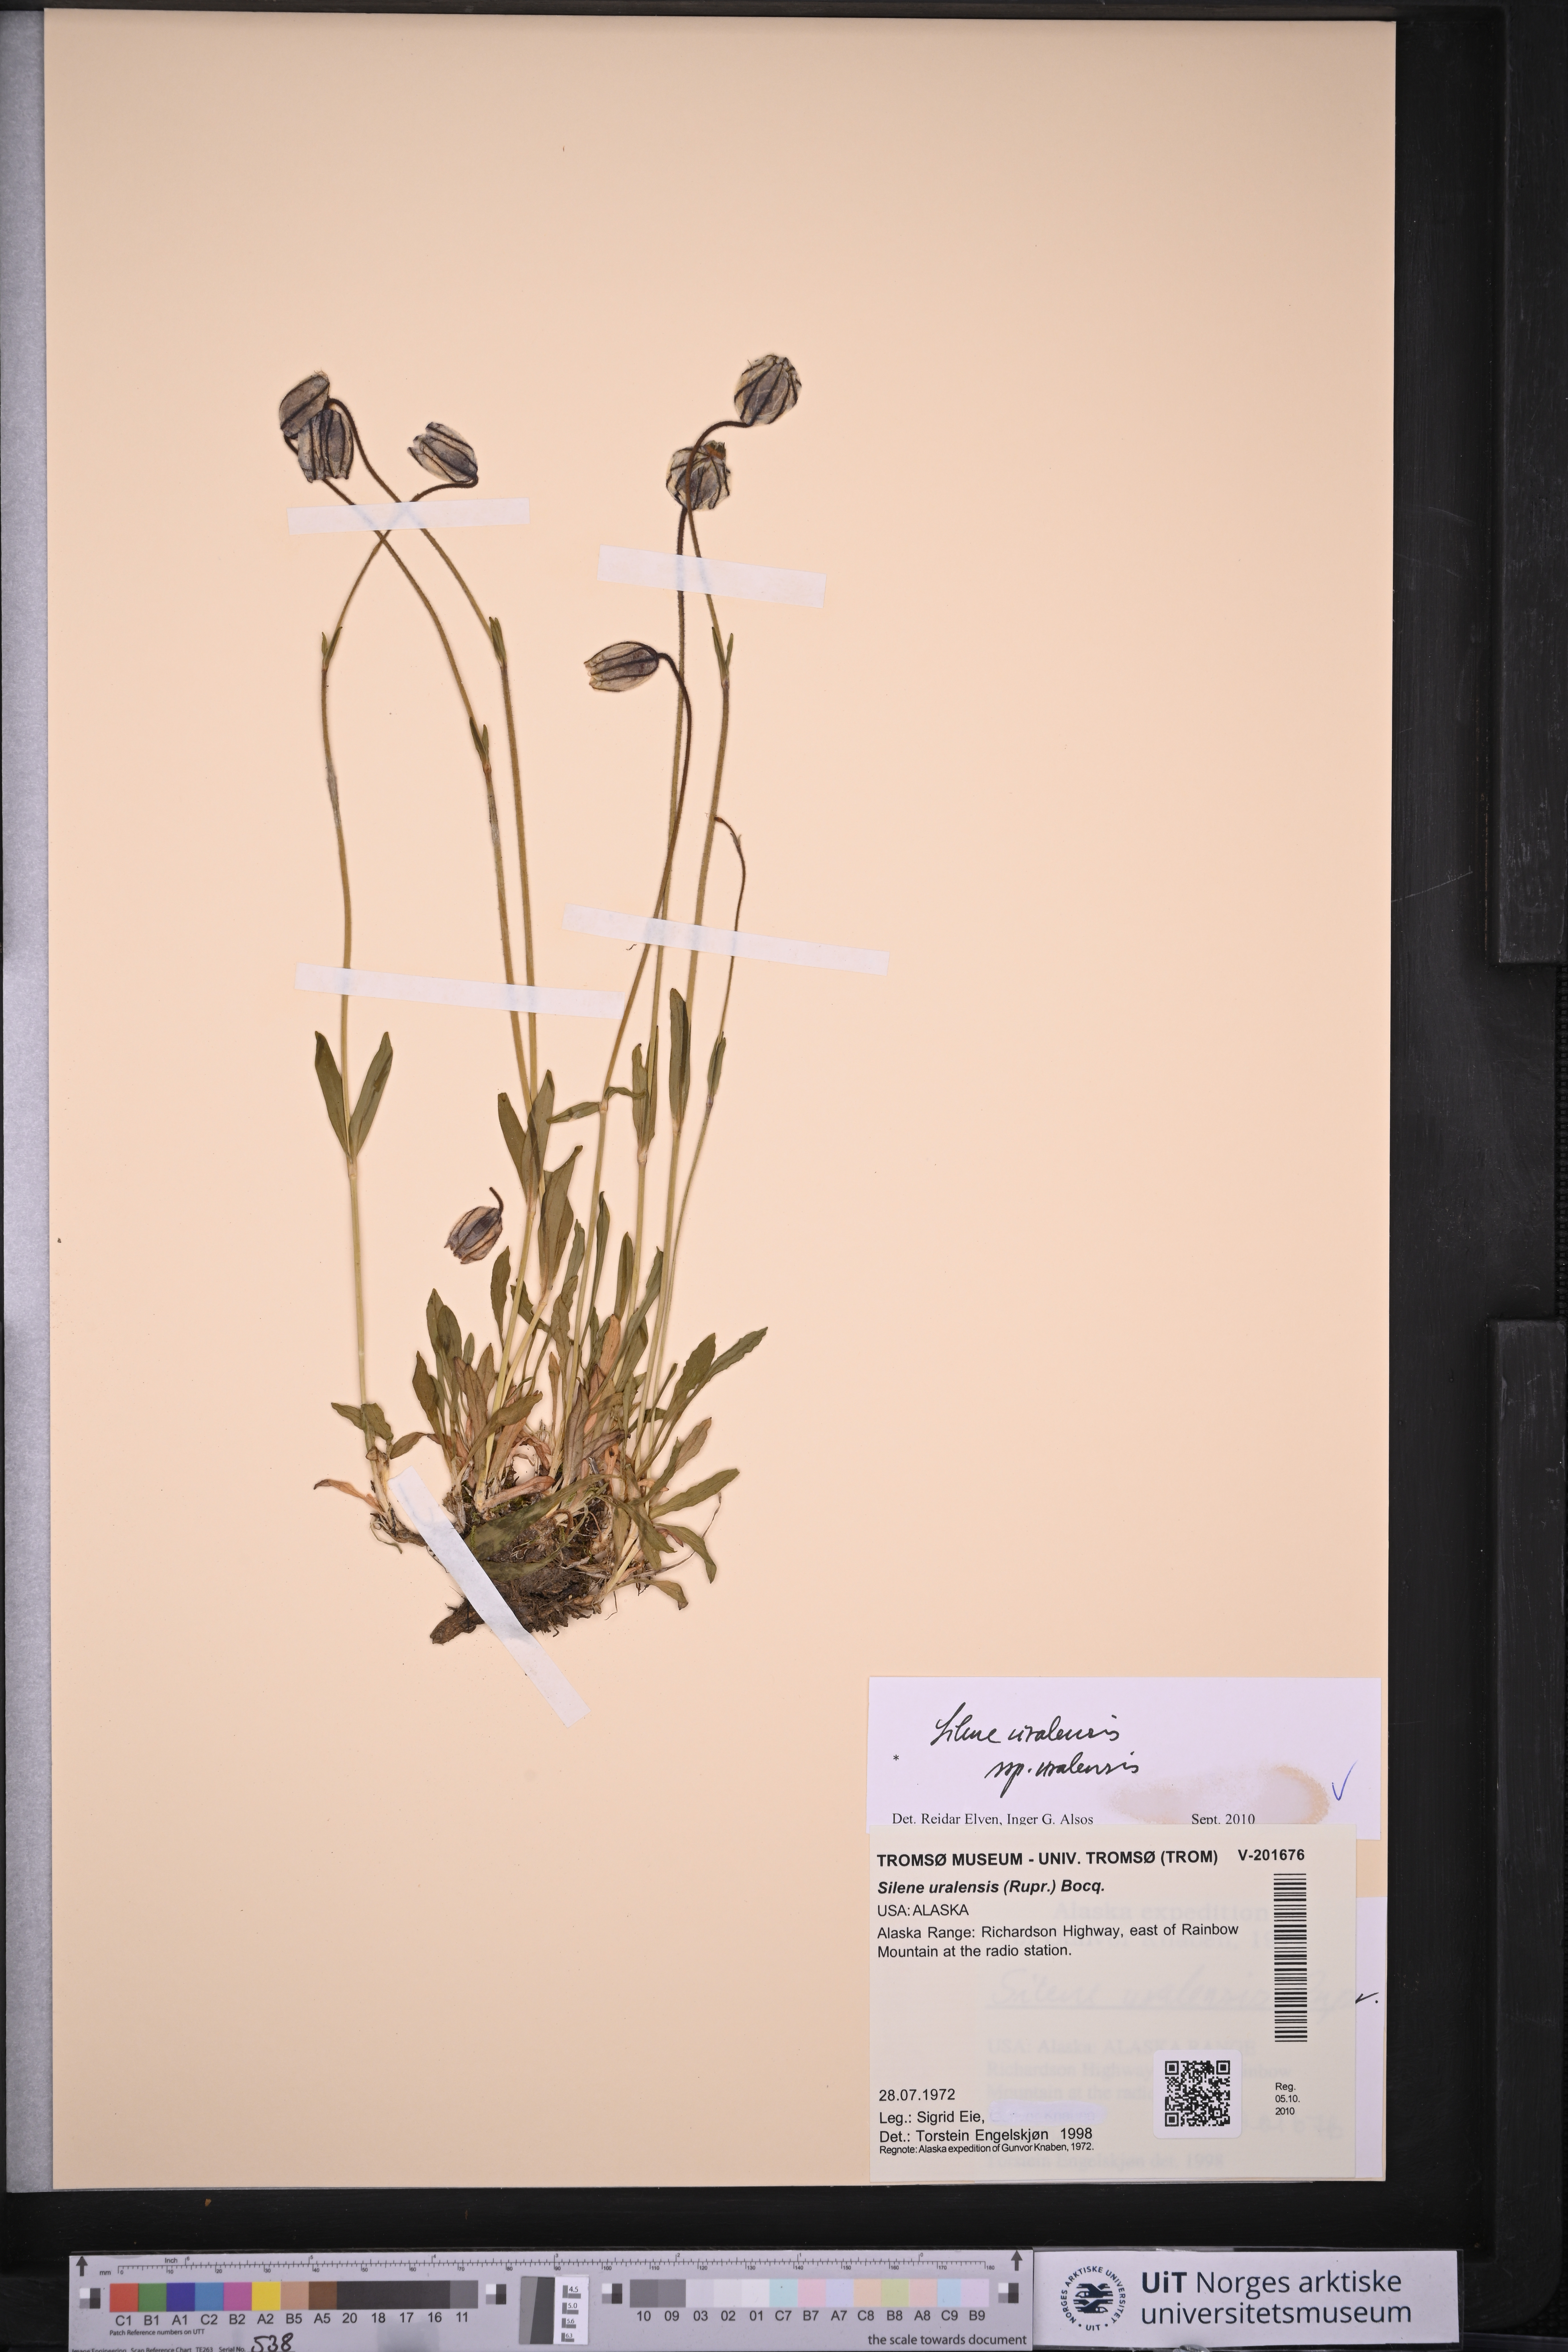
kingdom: Plantae
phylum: Tracheophyta
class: Magnoliopsida
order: Caryophyllales
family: Caryophyllaceae
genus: Silene
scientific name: Silene uralensis
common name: Nodding campion
